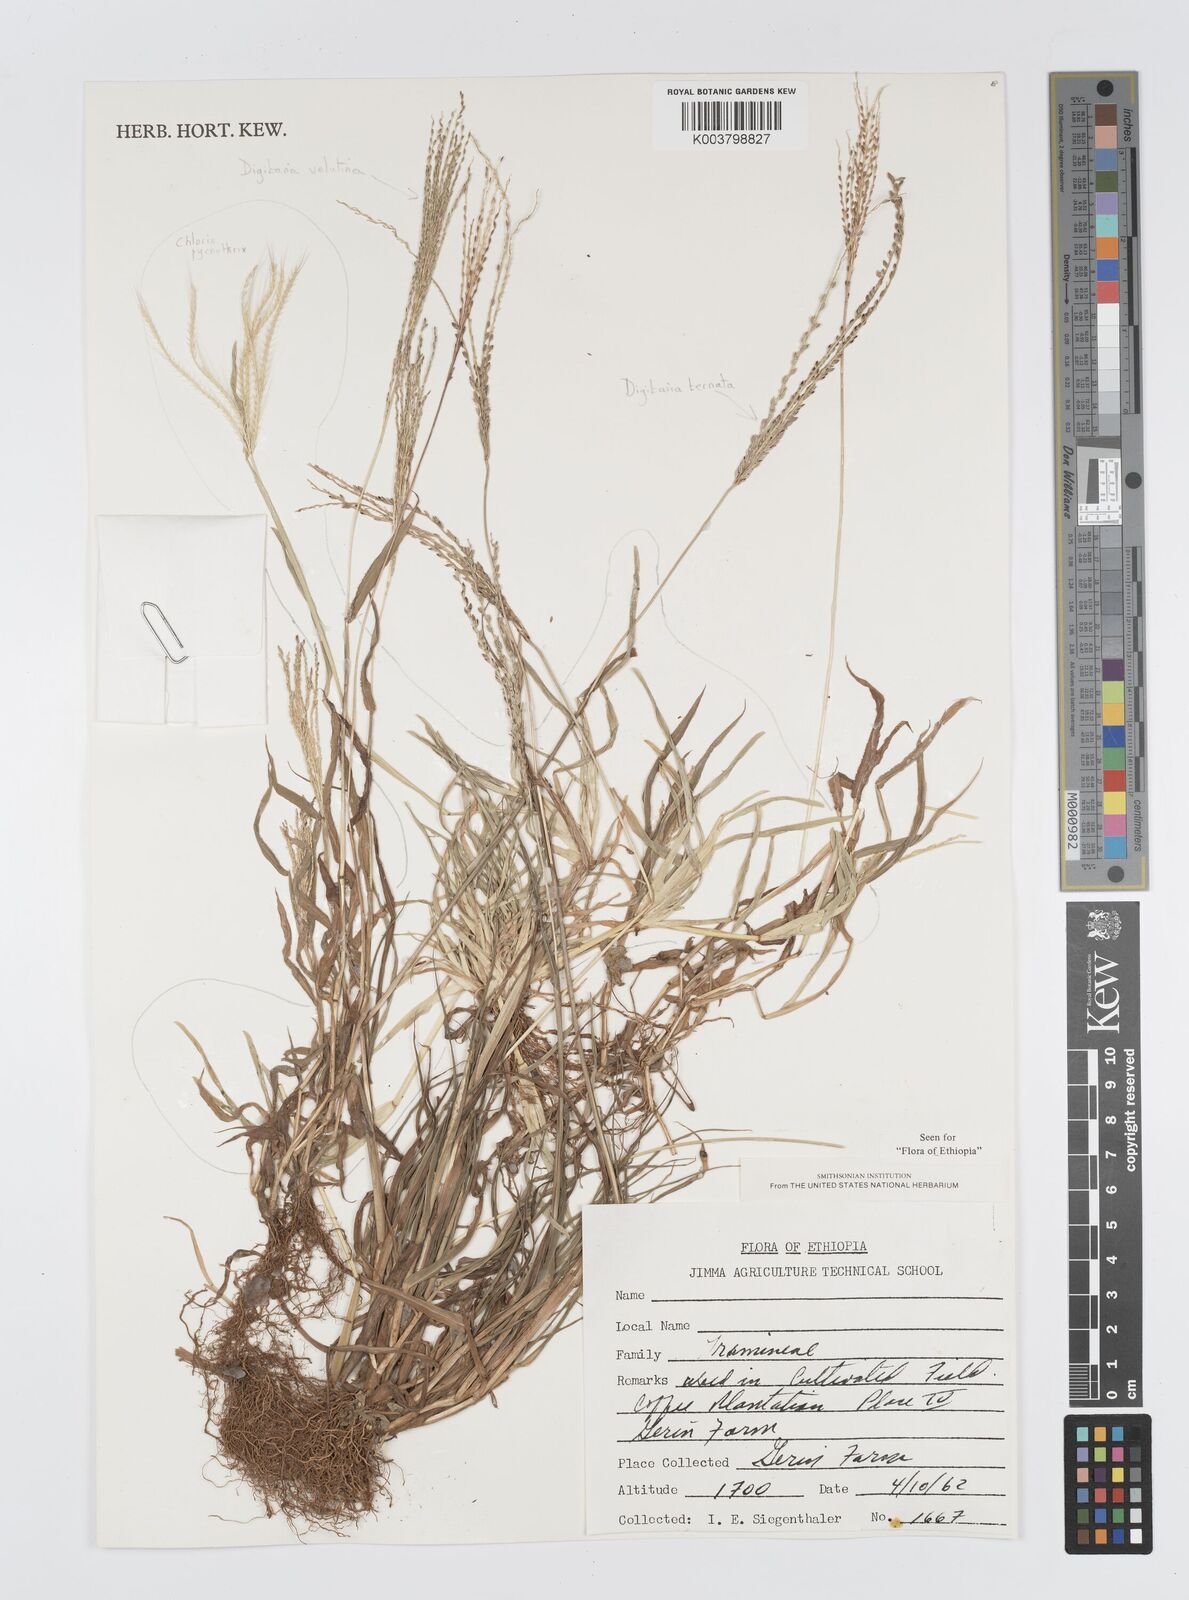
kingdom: Plantae
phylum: Tracheophyta
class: Liliopsida
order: Poales
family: Poaceae
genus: Digitaria
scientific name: Digitaria ternata
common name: Blackseed crabgrass
